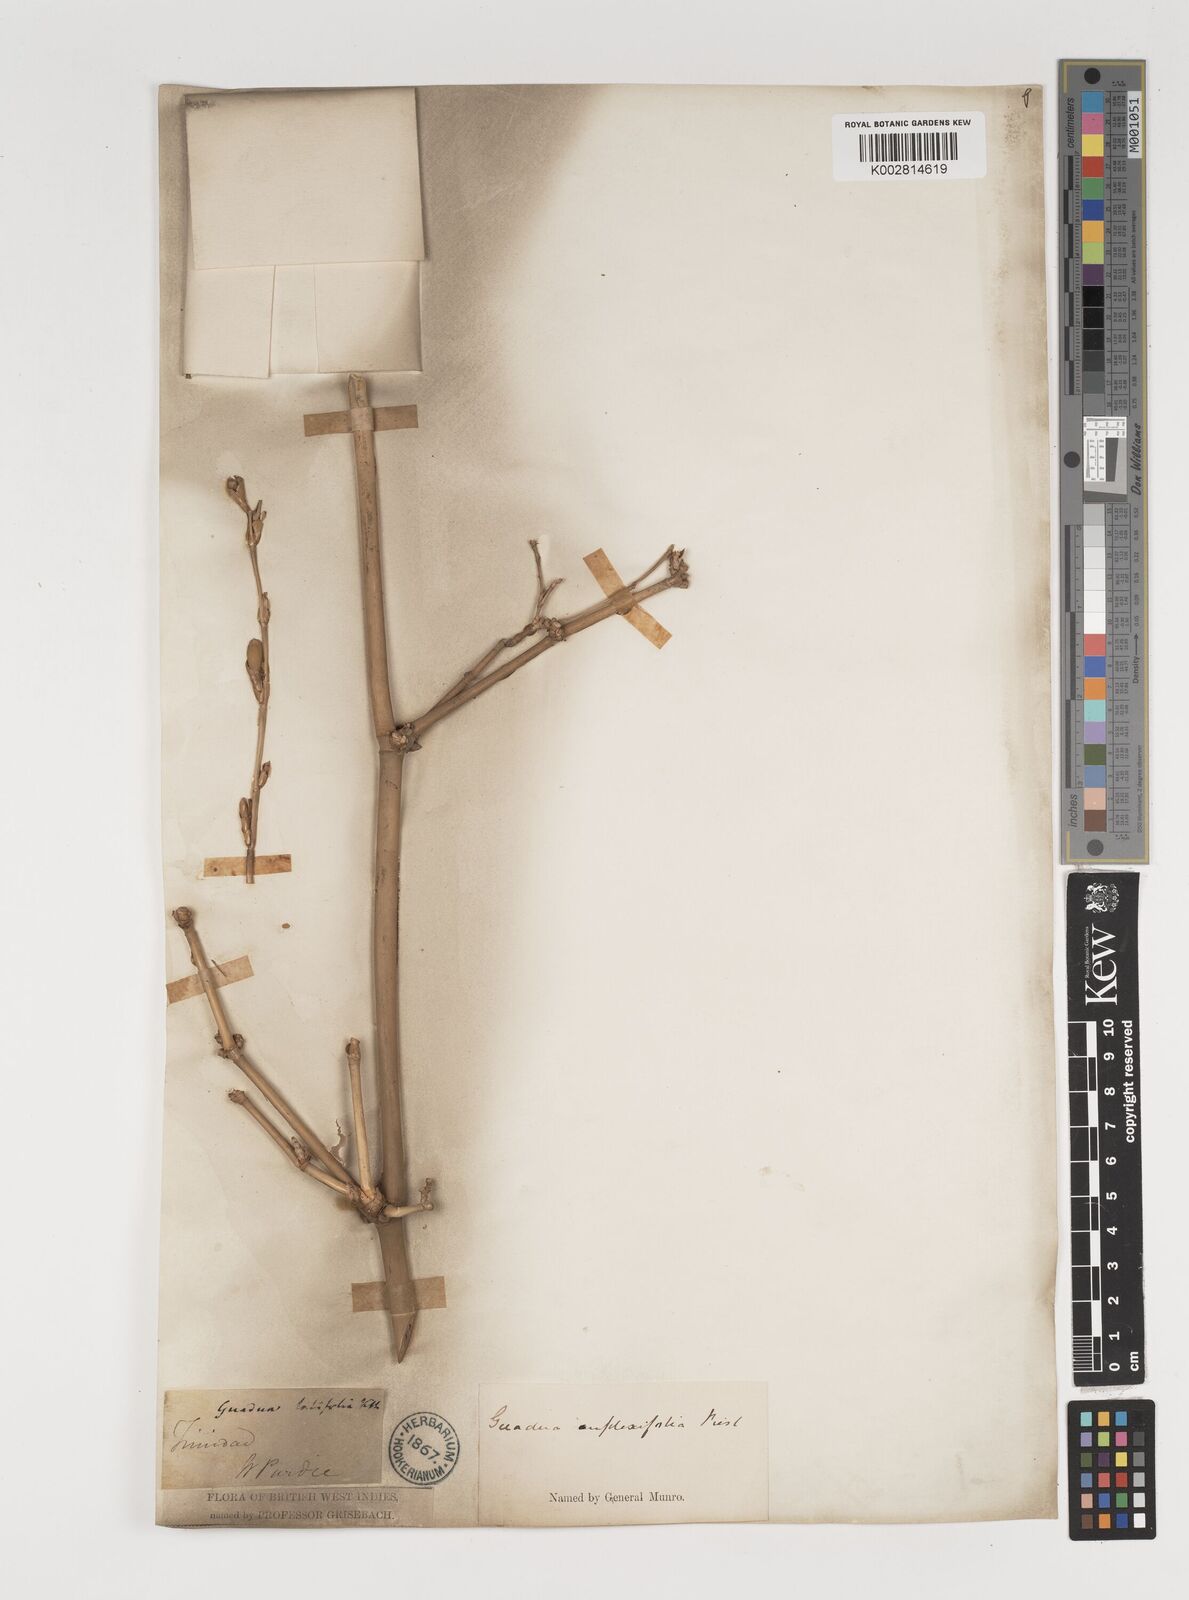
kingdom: Plantae
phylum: Tracheophyta
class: Liliopsida
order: Poales
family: Poaceae
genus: Guadua
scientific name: Guadua amplexifolia
